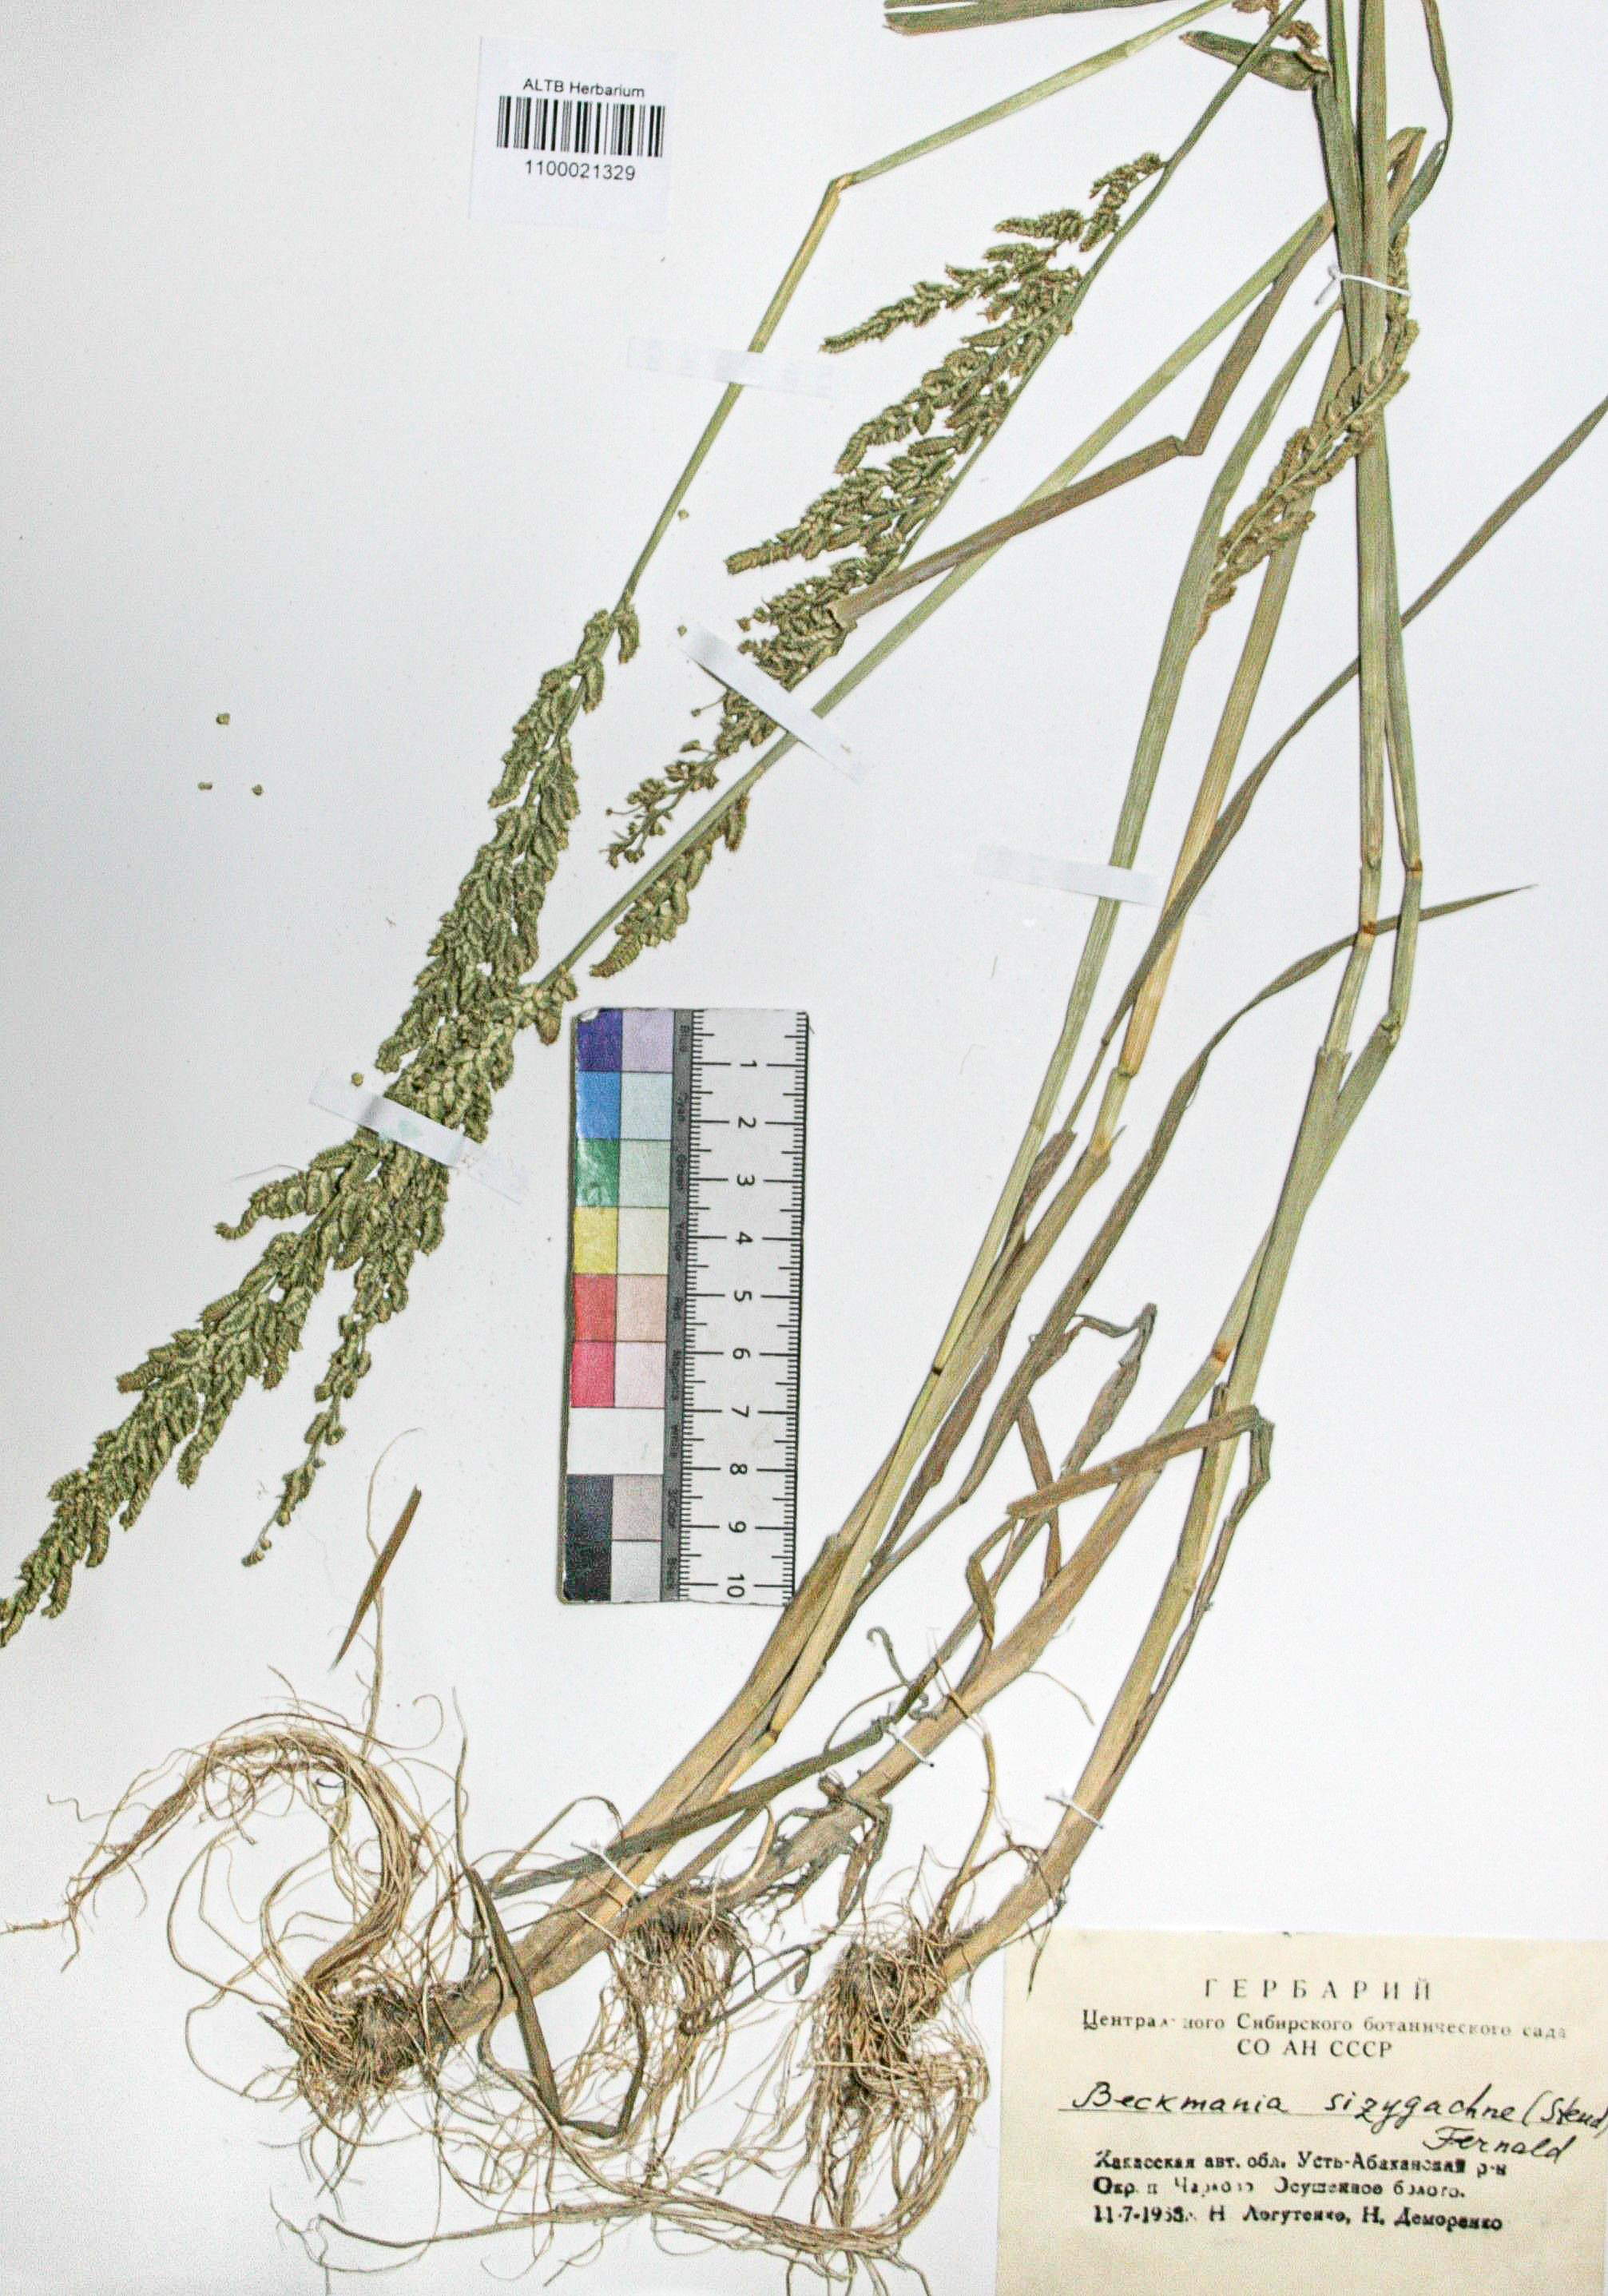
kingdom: Plantae
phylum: Tracheophyta
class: Liliopsida
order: Poales
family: Poaceae
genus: Beckmannia
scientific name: Beckmannia syzigachne
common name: American slough-grass
